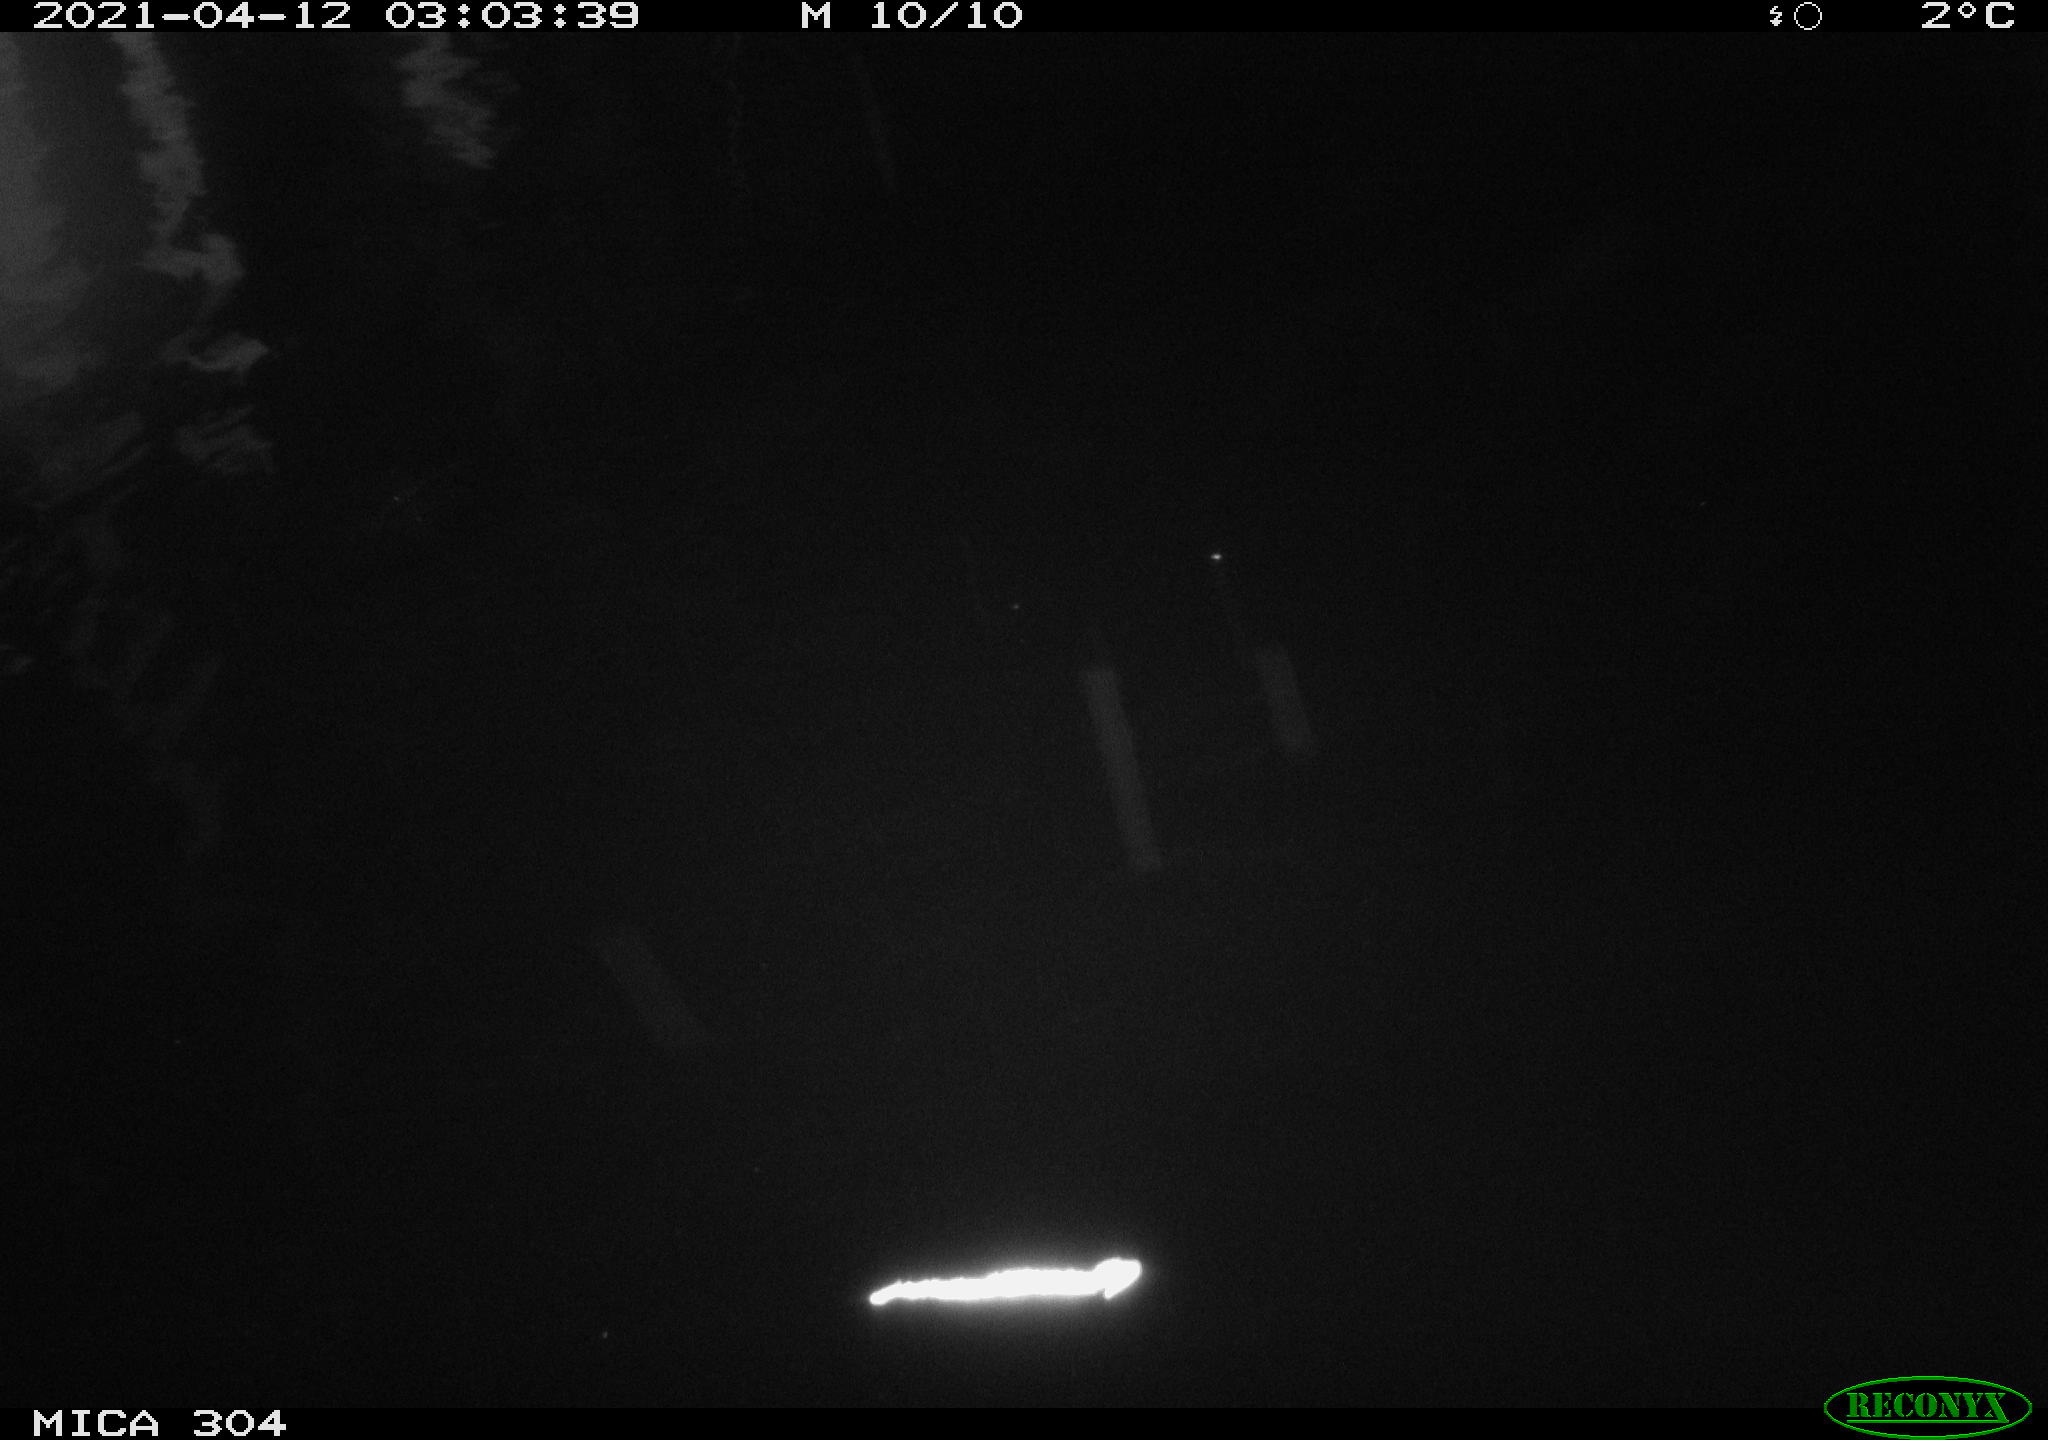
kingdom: Animalia
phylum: Chordata
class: Aves
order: Anseriformes
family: Anatidae
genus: Anas
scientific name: Anas
